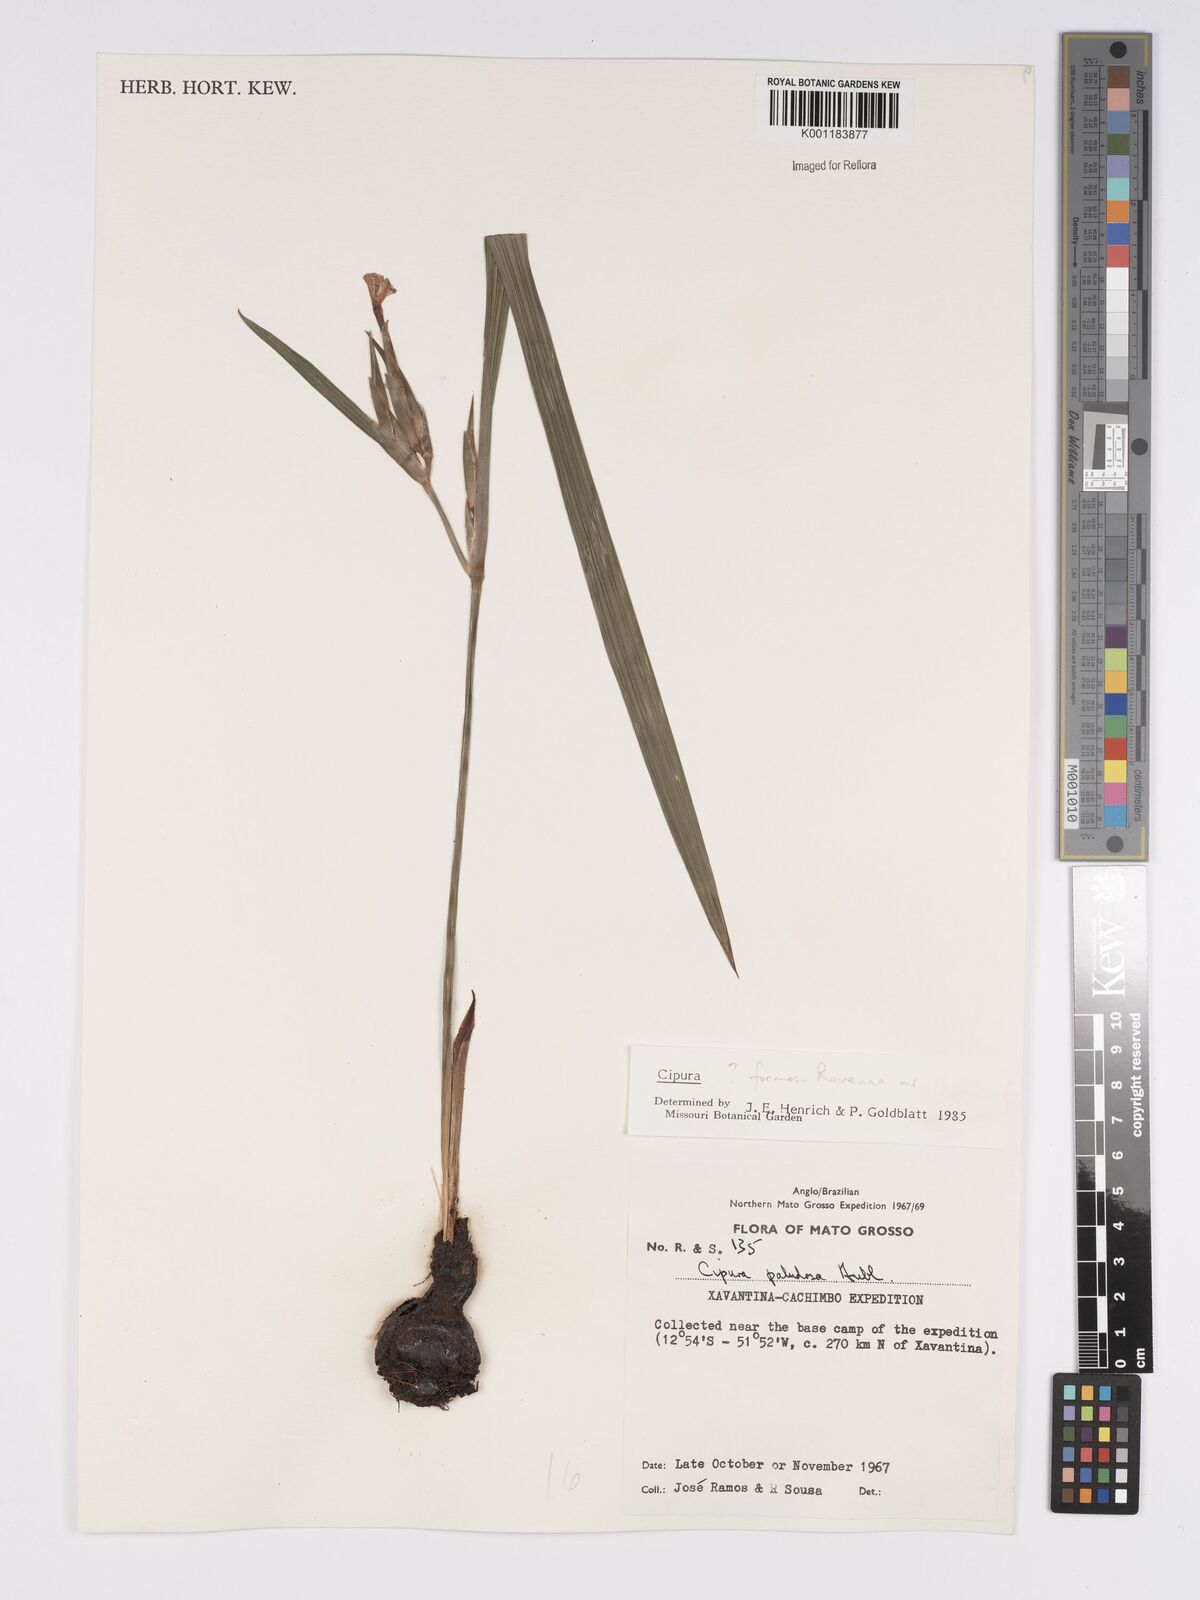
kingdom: Plantae
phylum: Tracheophyta
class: Liliopsida
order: Asparagales
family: Iridaceae
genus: Cipura
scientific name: Cipura formosa
